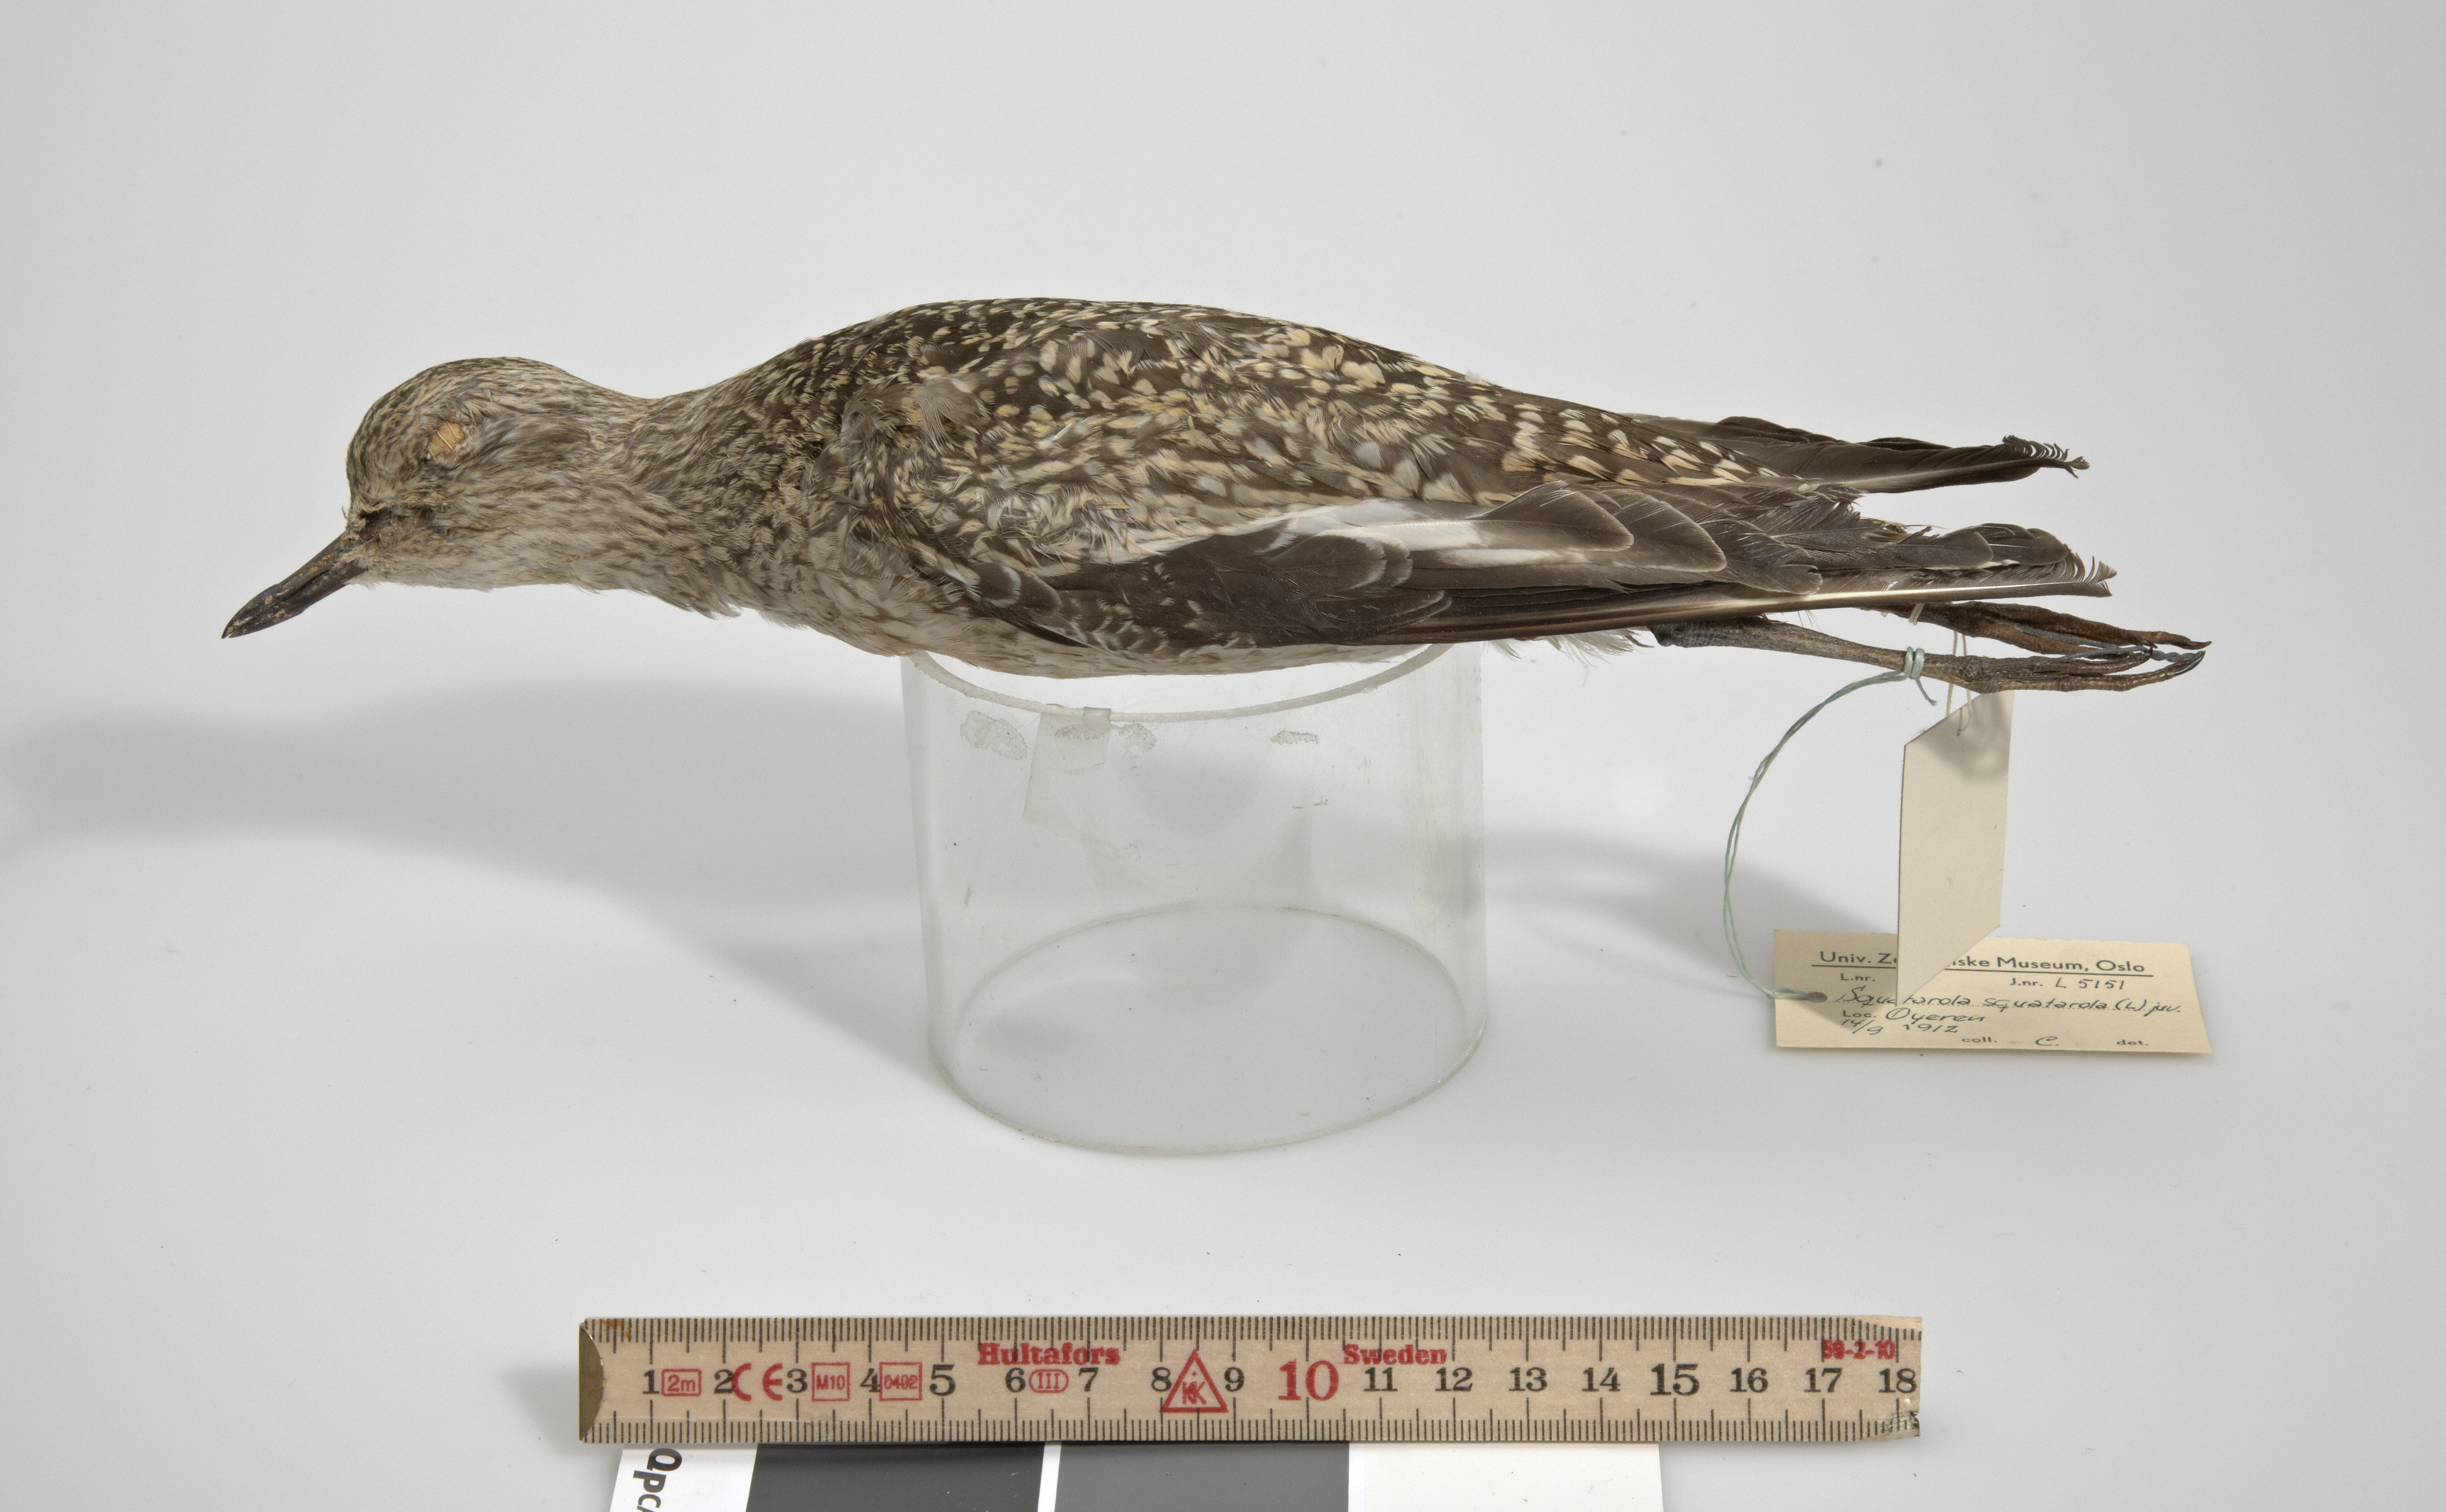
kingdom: Animalia
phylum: Chordata
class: Aves
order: Charadriiformes
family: Charadriidae
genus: Pluvialis
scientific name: Pluvialis squatarola
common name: Grey plover
